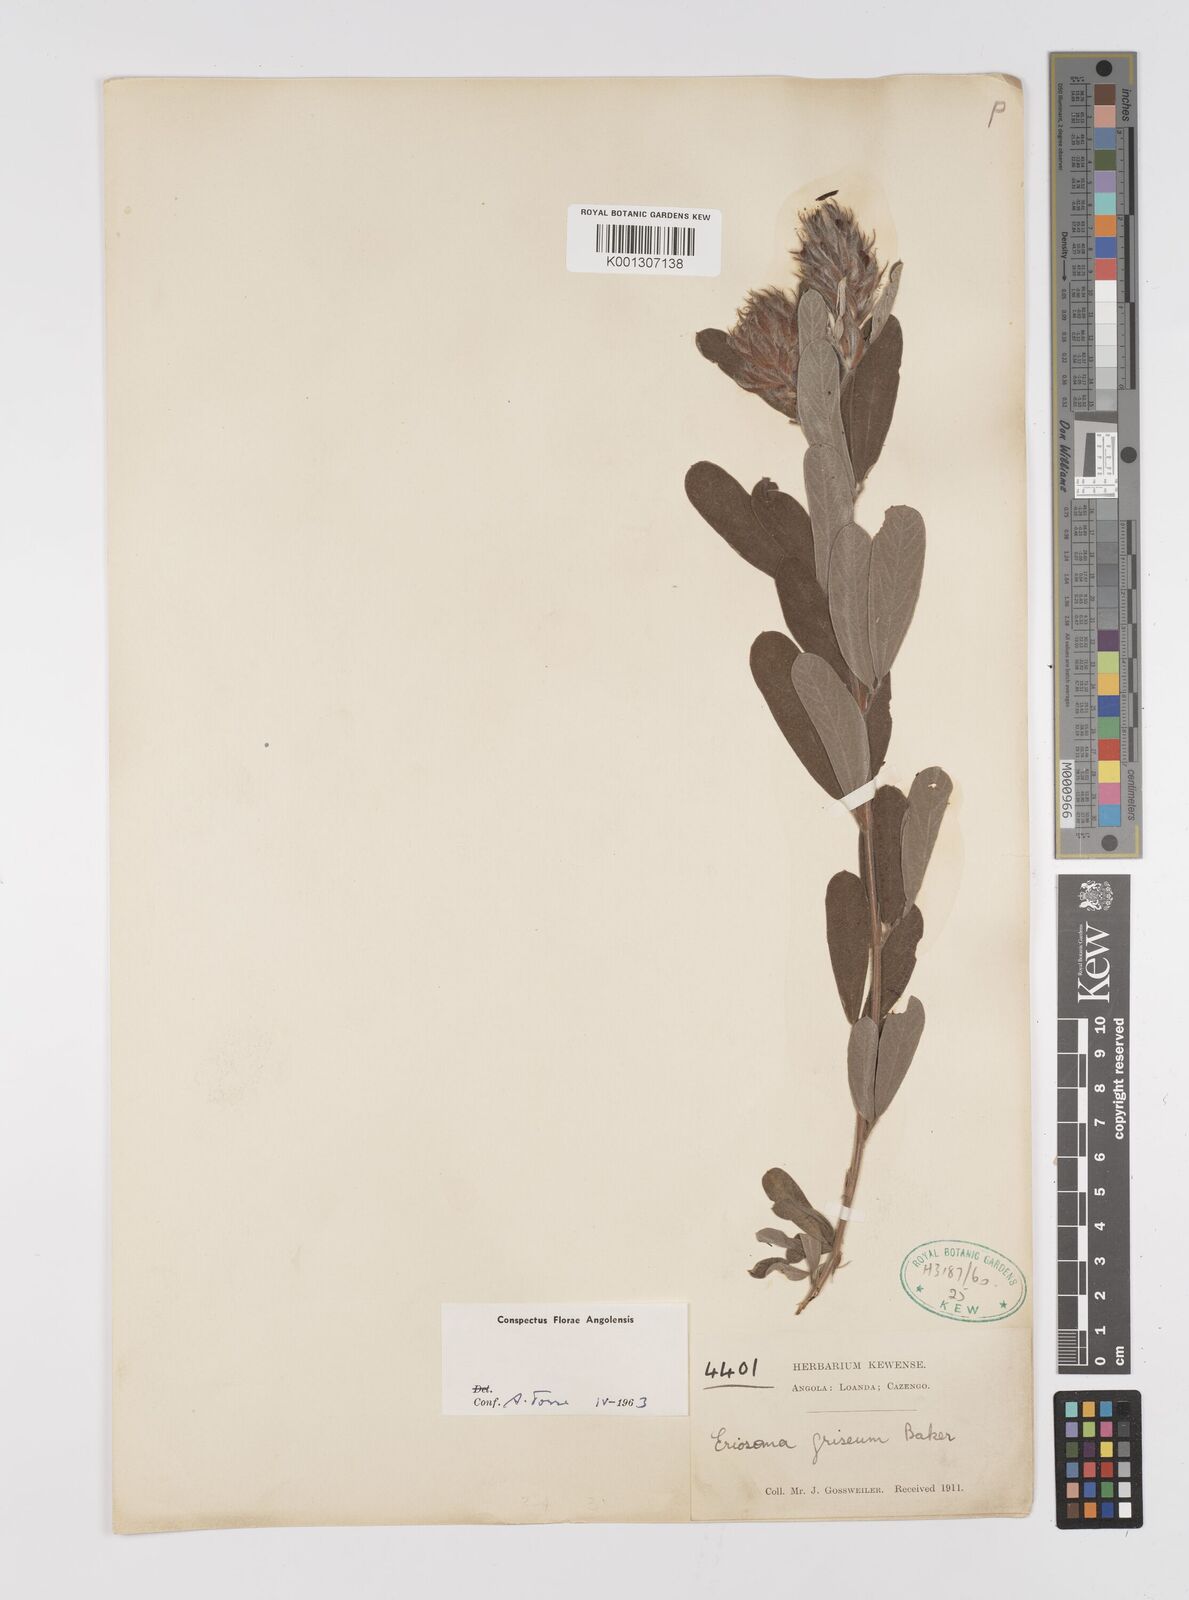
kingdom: Plantae
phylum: Tracheophyta
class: Magnoliopsida
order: Fabales
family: Fabaceae
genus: Eriosema
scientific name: Eriosema griseum
